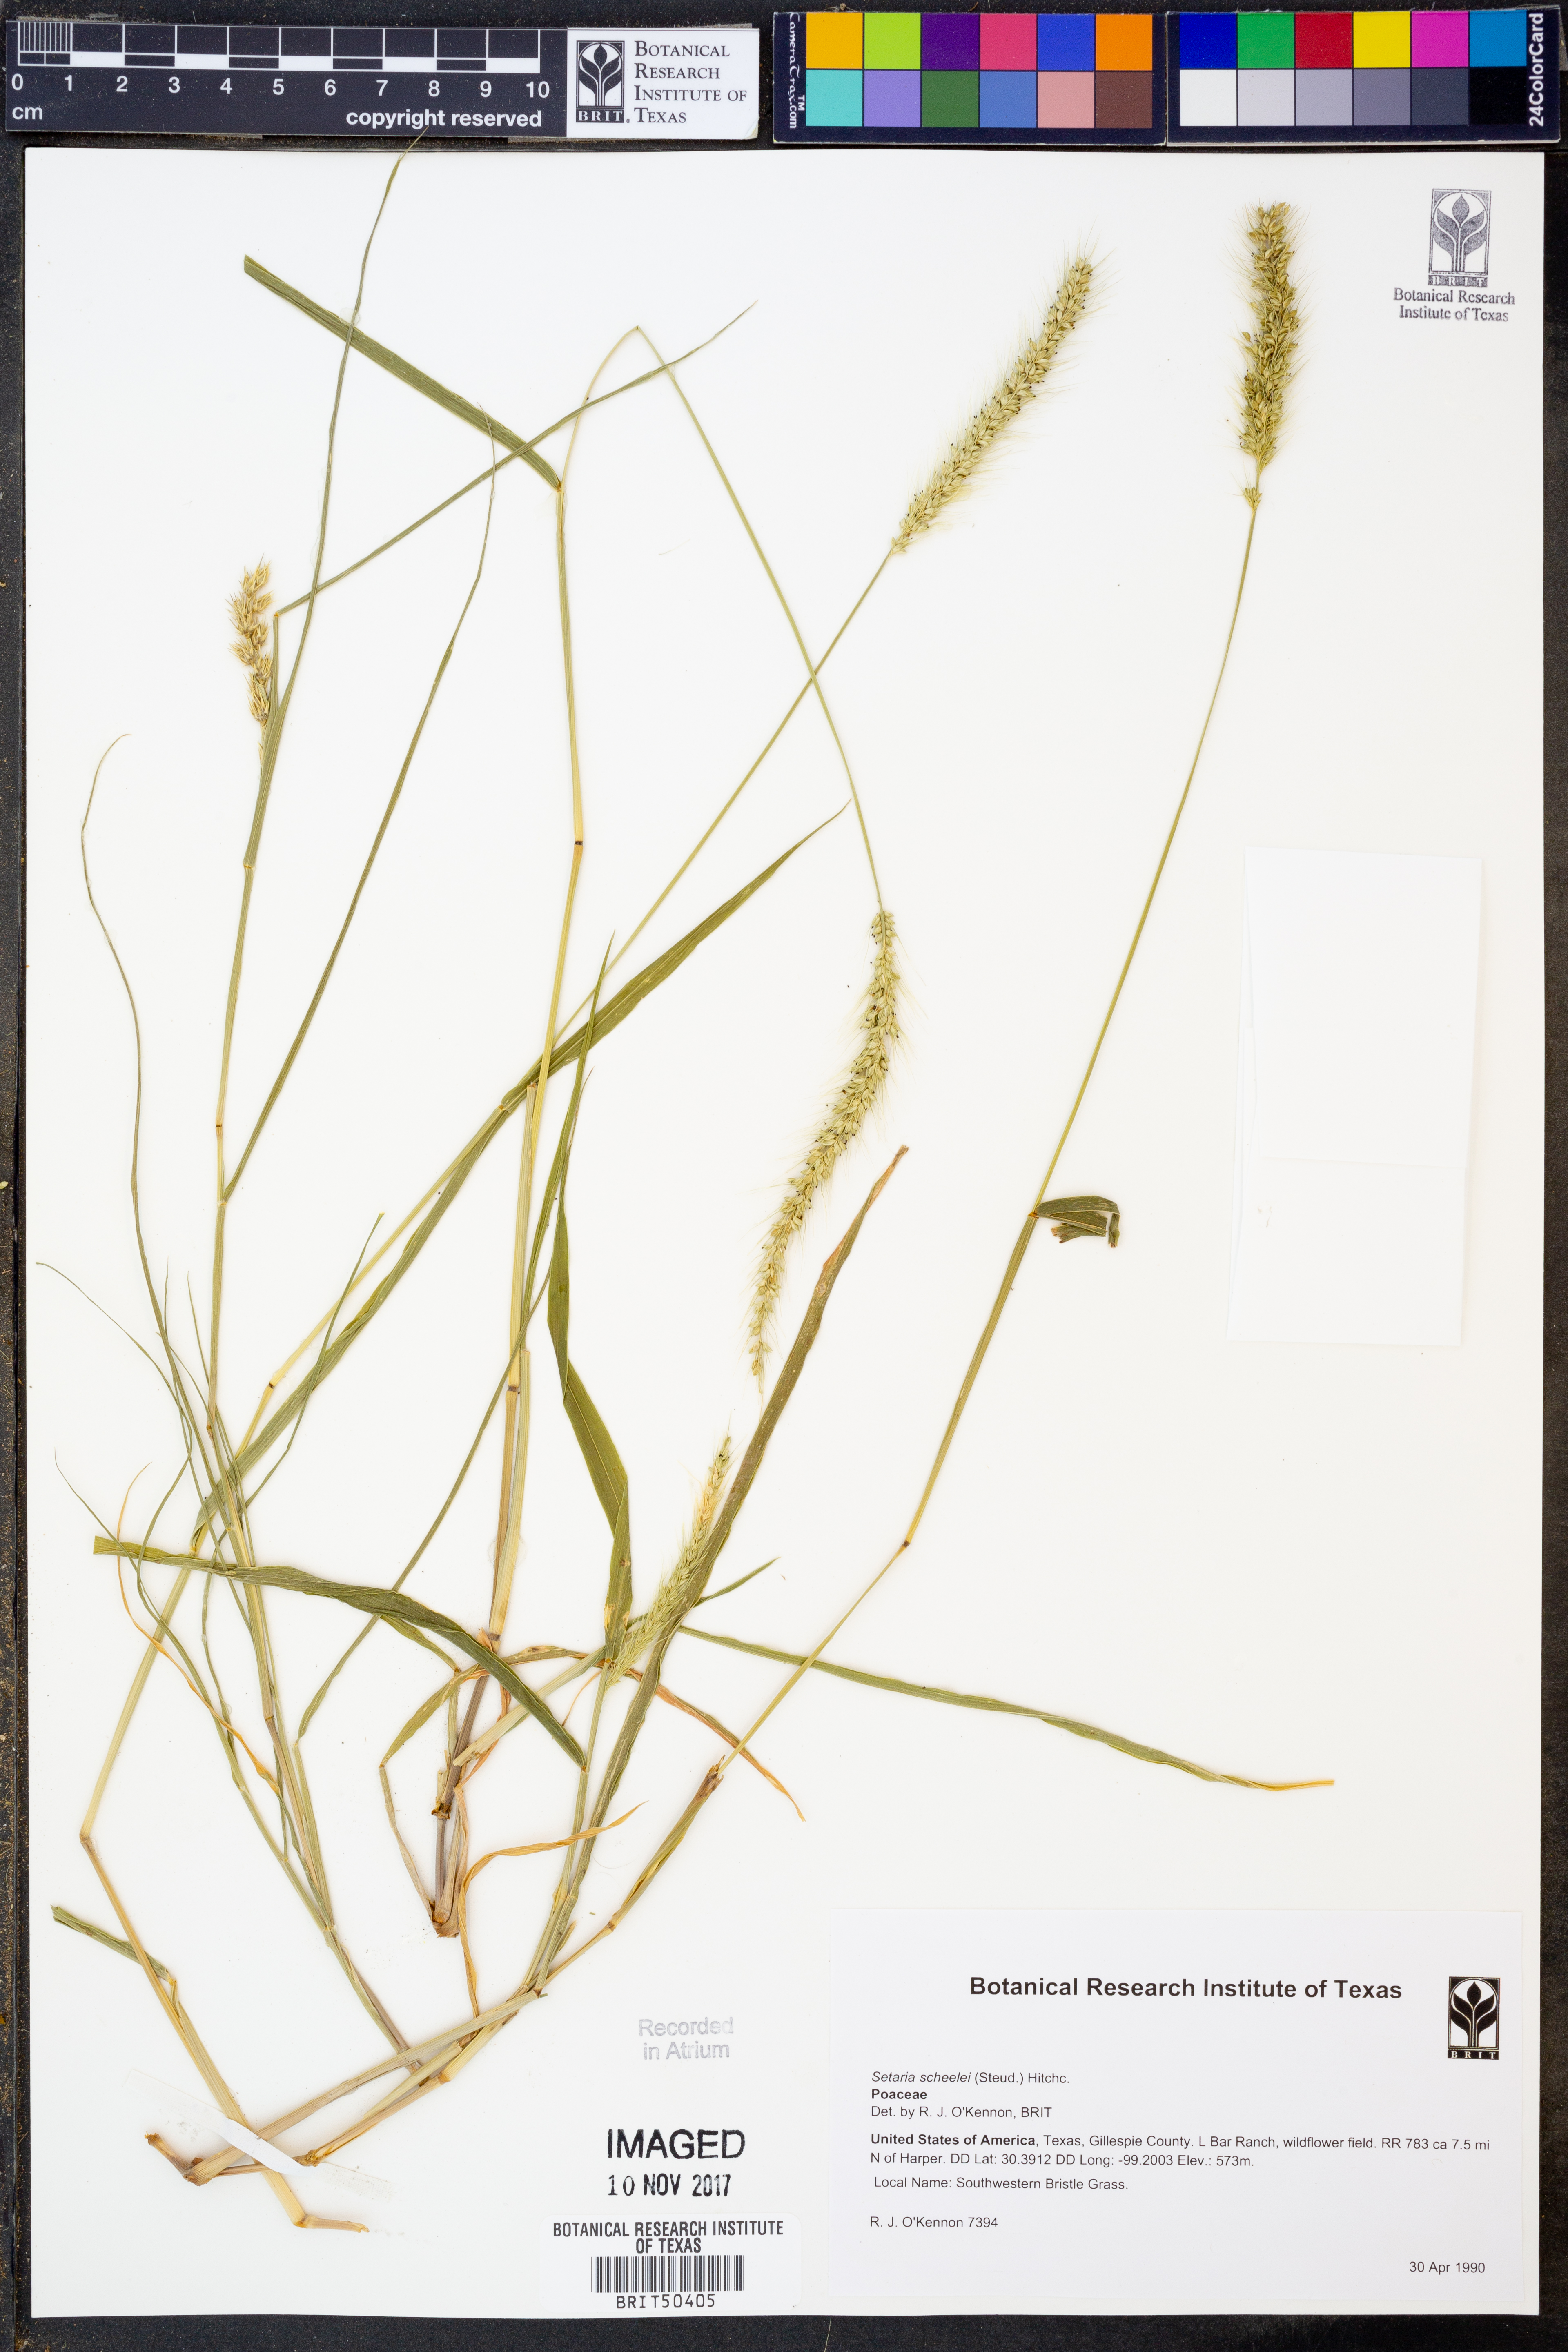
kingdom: Plantae
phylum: Tracheophyta
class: Liliopsida
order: Poales
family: Poaceae
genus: Setaria
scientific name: Setaria scheelei
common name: Southwestern bristle grass
